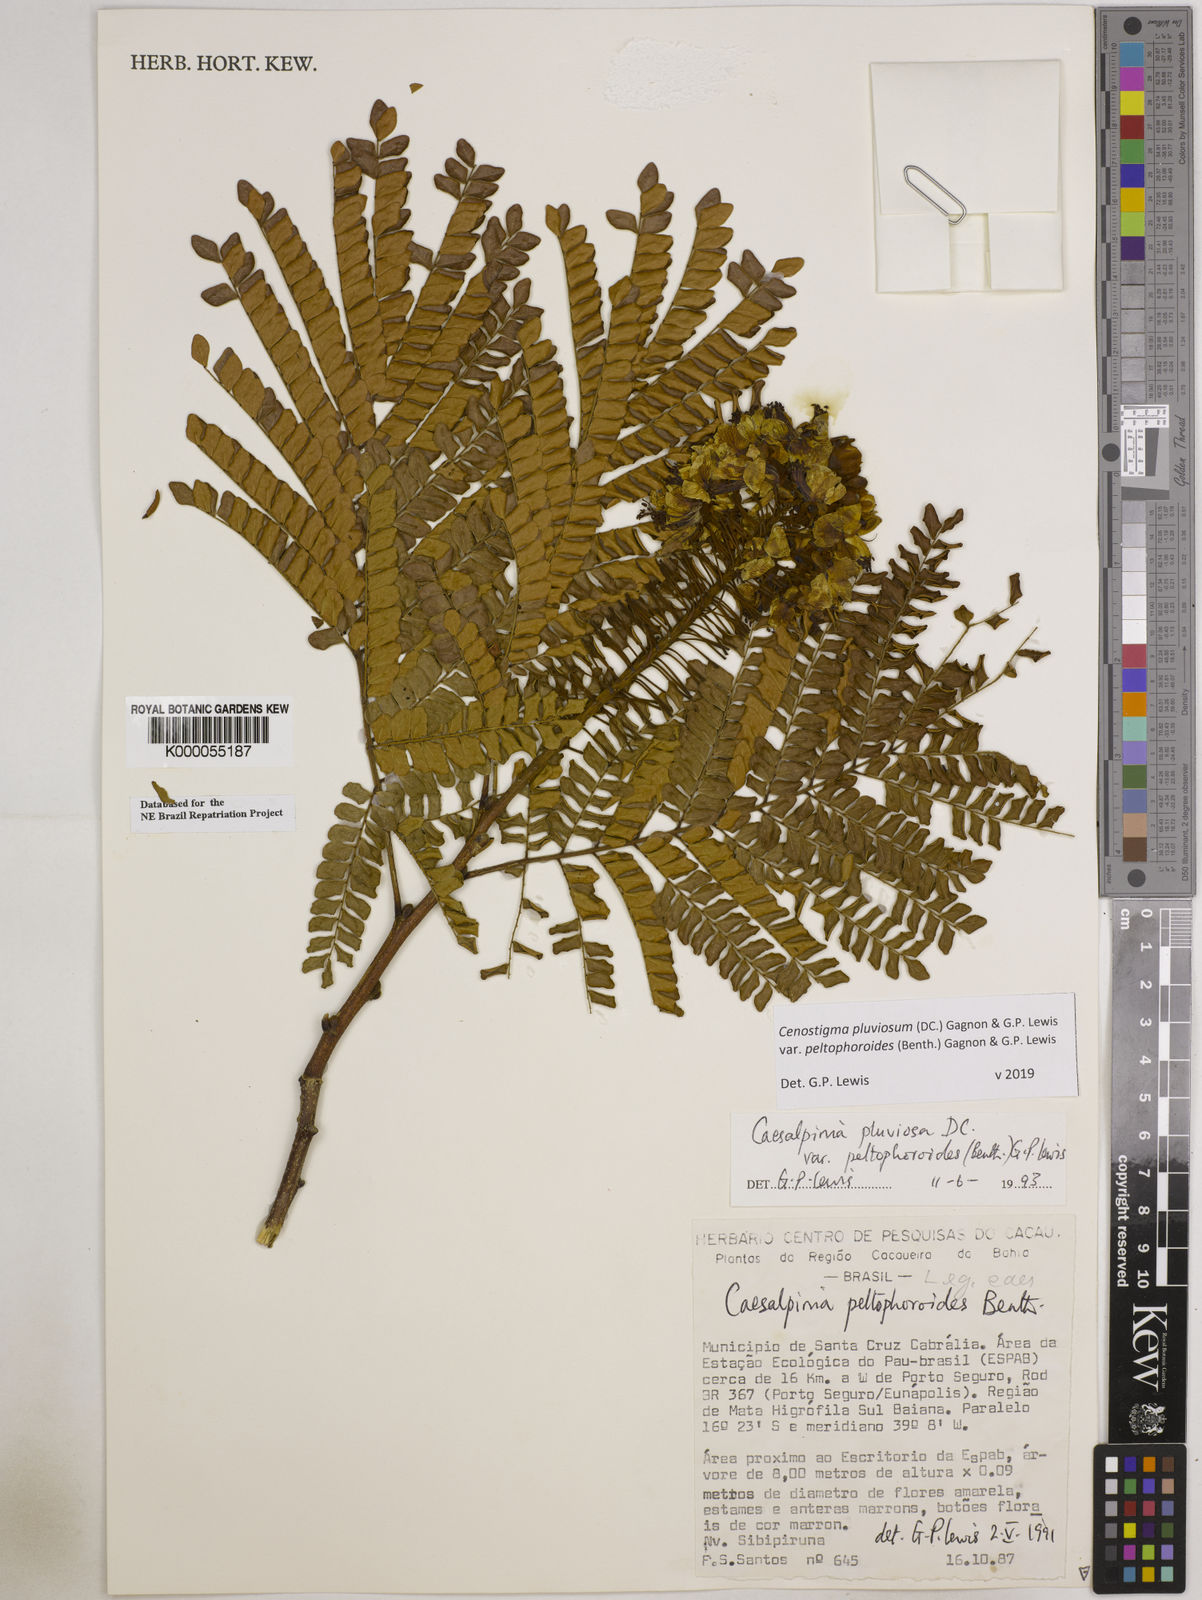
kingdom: Plantae
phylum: Tracheophyta
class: Magnoliopsida
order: Fabales
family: Fabaceae
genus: Cenostigma
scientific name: Cenostigma pluviosum
